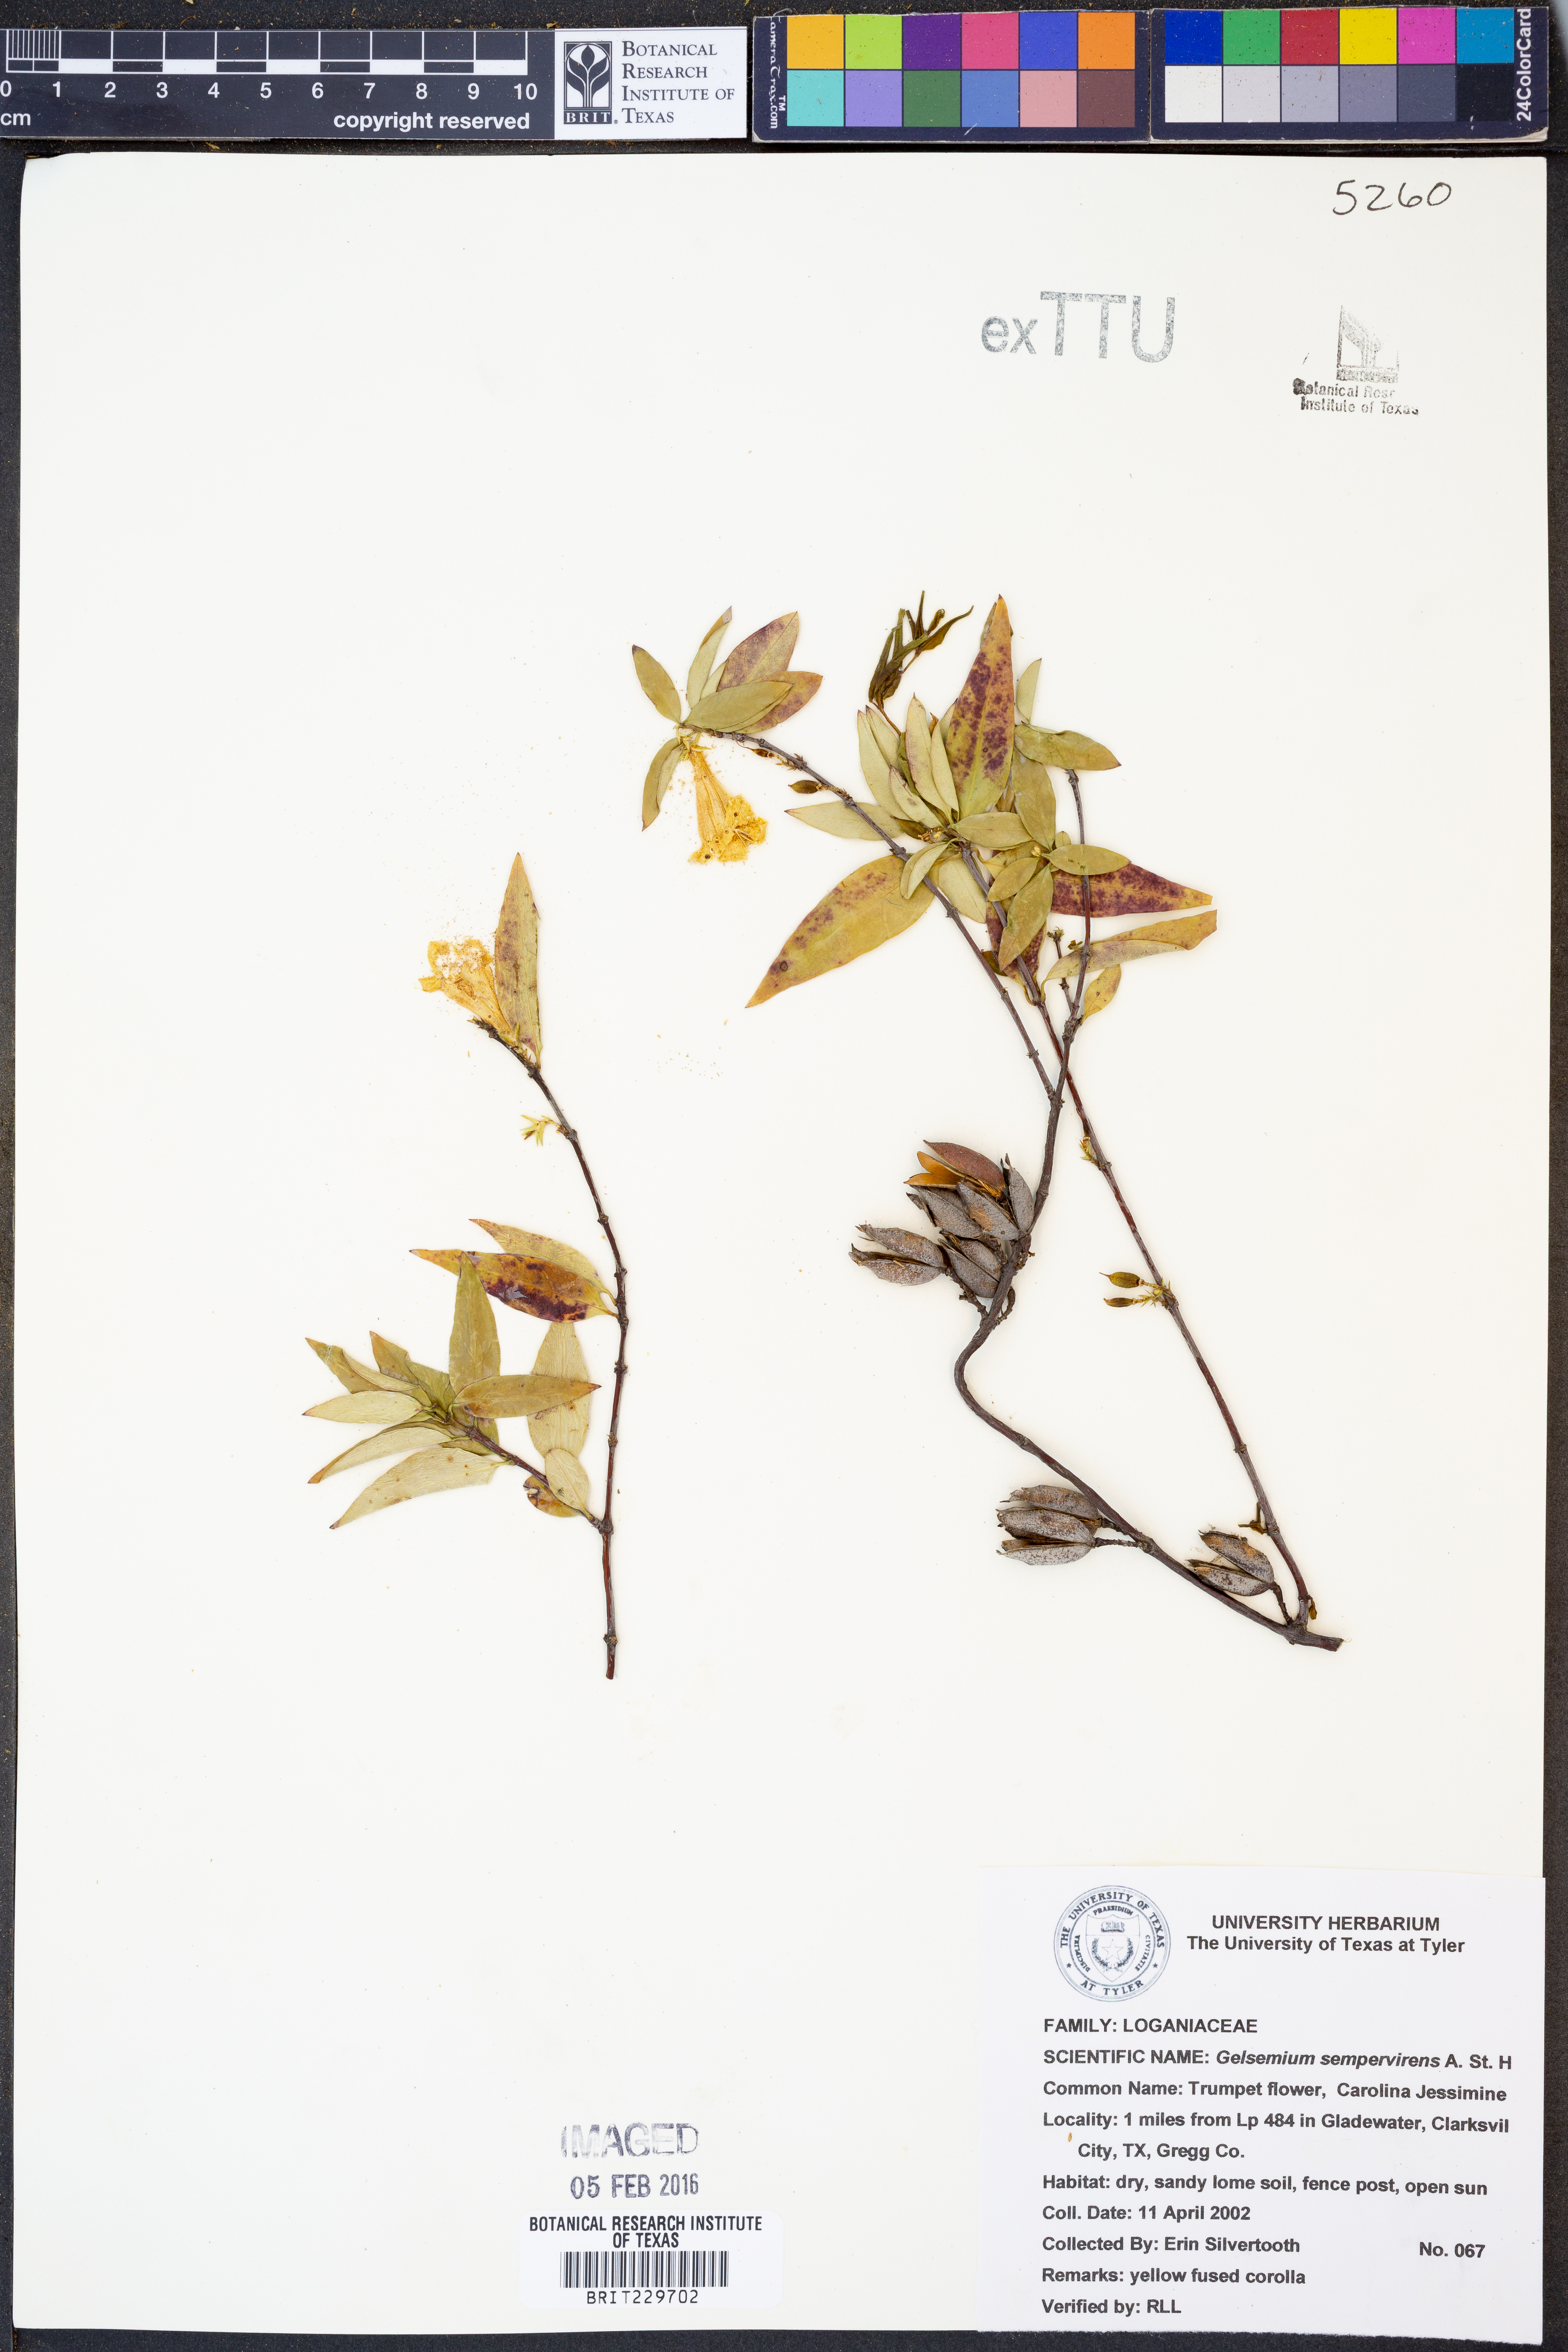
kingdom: Plantae
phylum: Tracheophyta
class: Magnoliopsida
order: Gentianales
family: Gelsemiaceae
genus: Gelsemium
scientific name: Gelsemium sempervirens
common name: Carolina-jasmine
